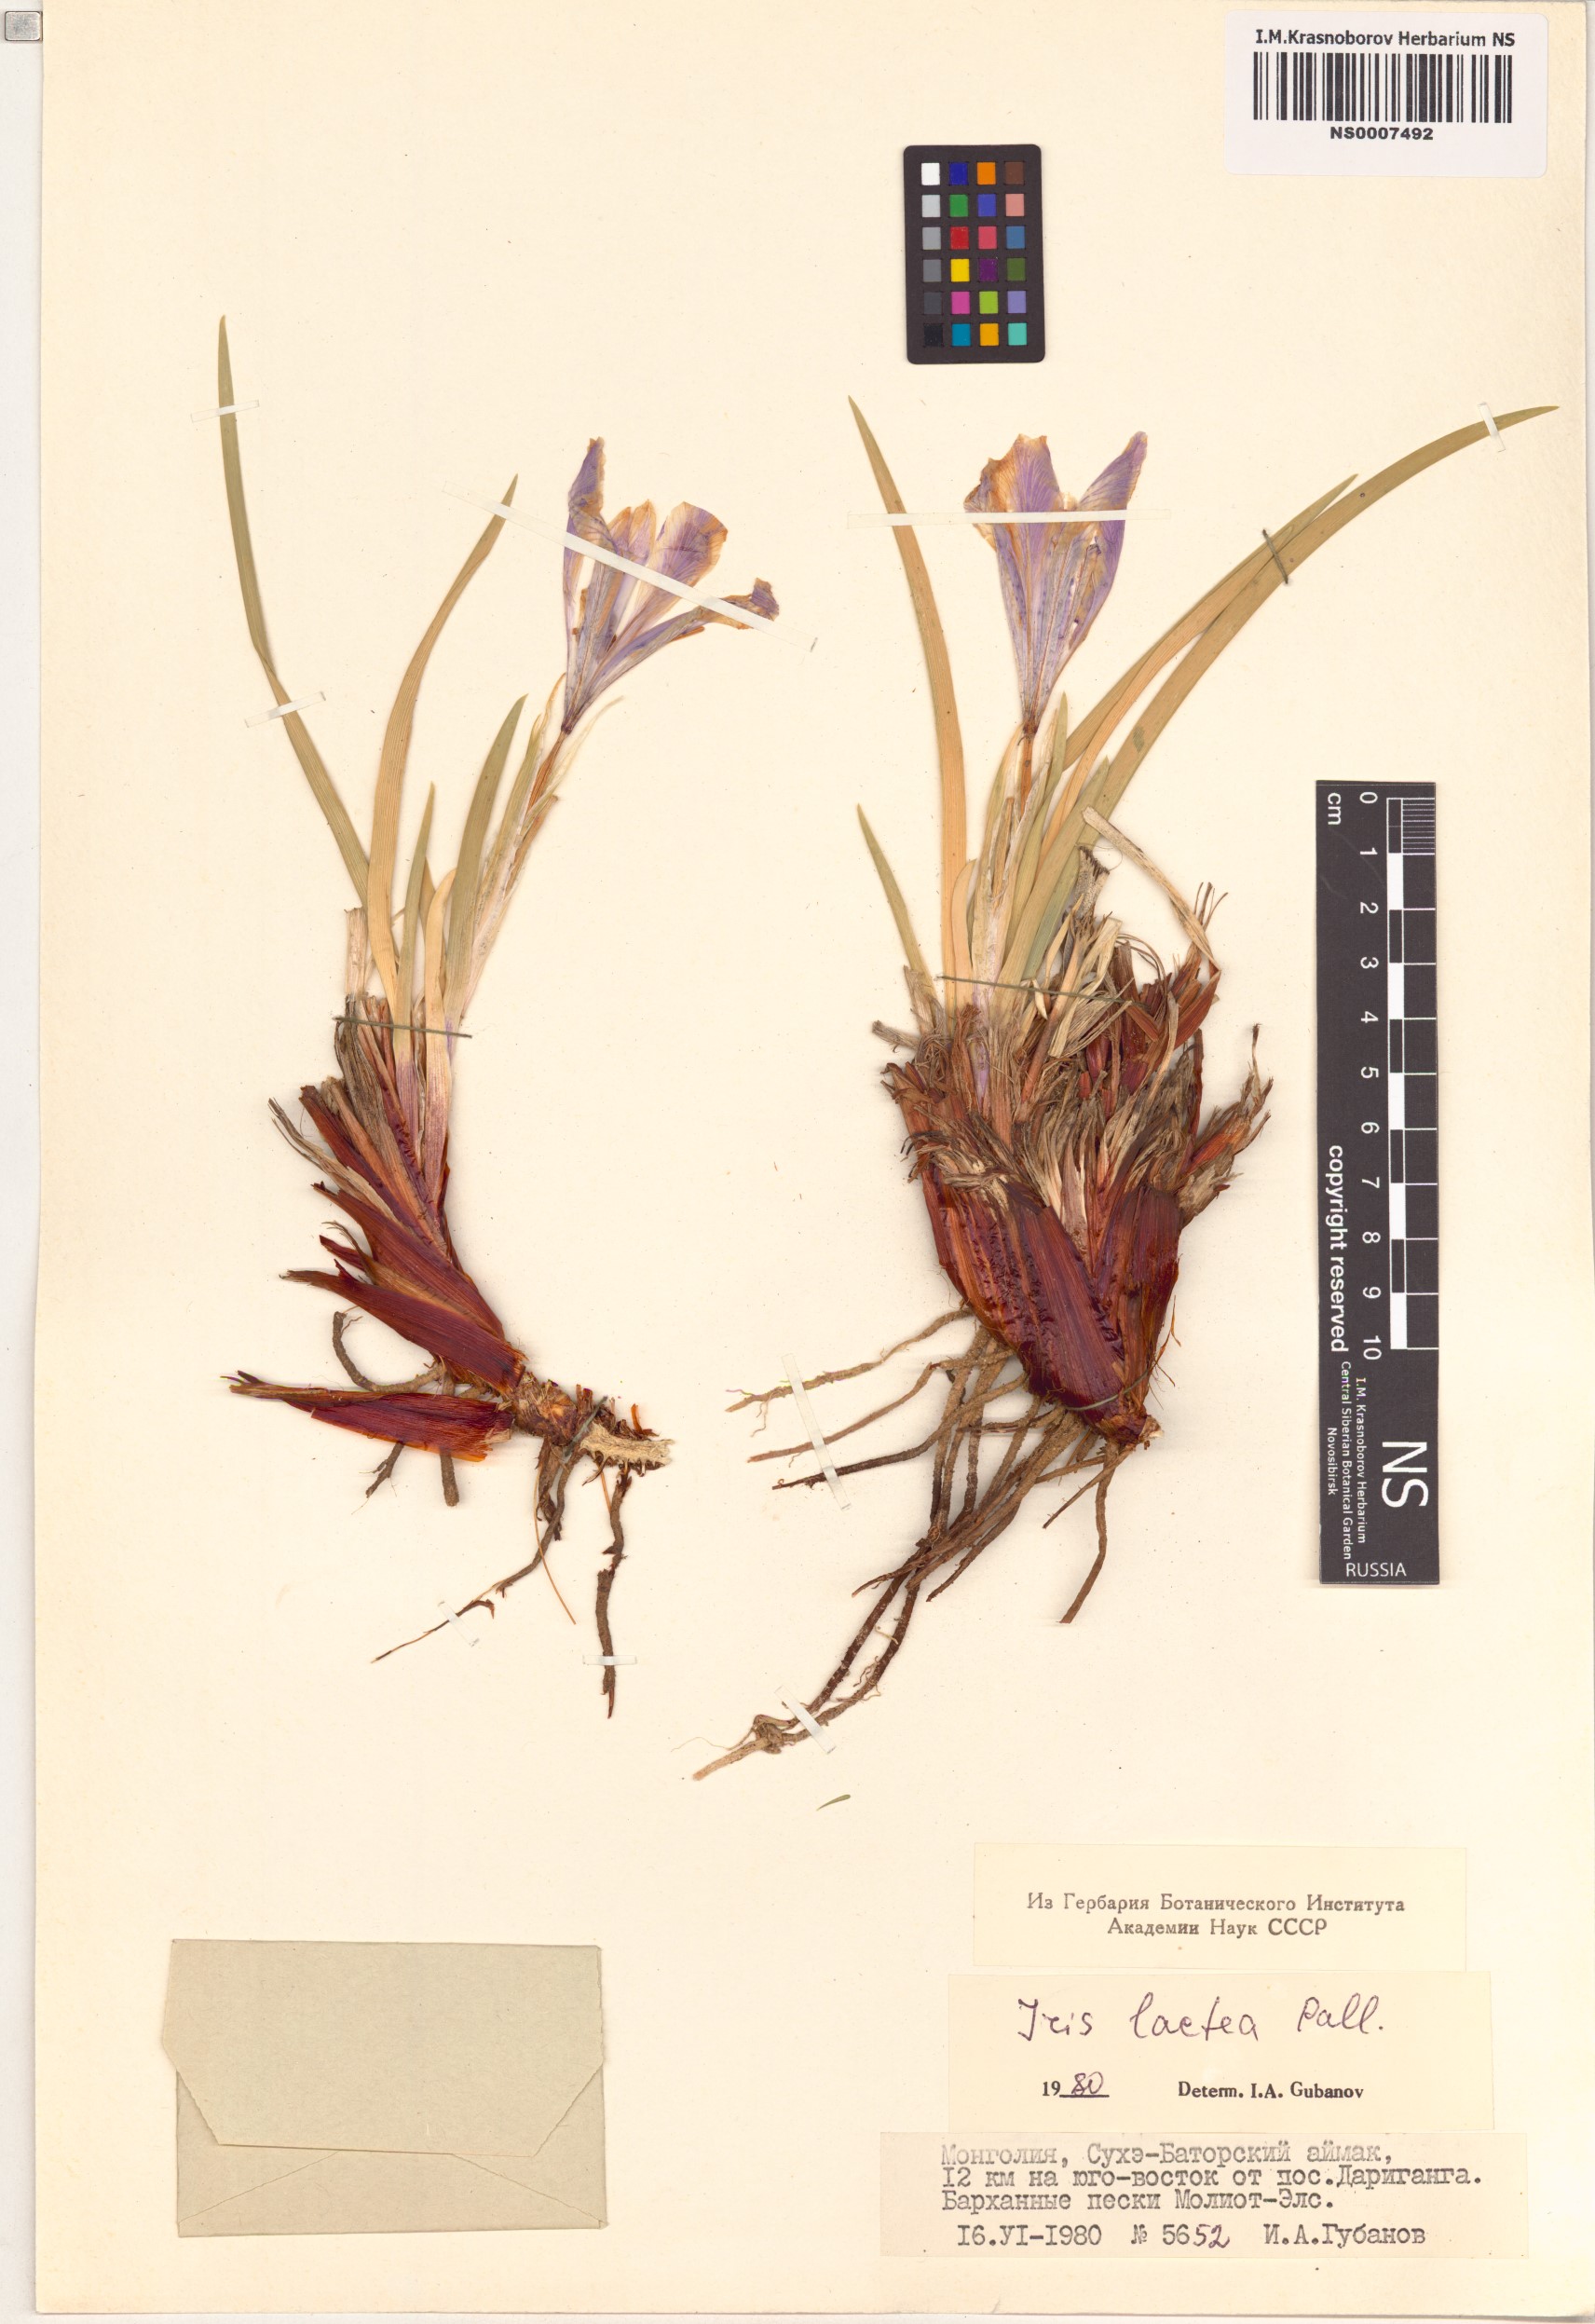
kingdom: Plantae
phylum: Tracheophyta
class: Liliopsida
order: Asparagales
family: Iridaceae
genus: Iris
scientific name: Iris lactea
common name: White-flower chinese iris
